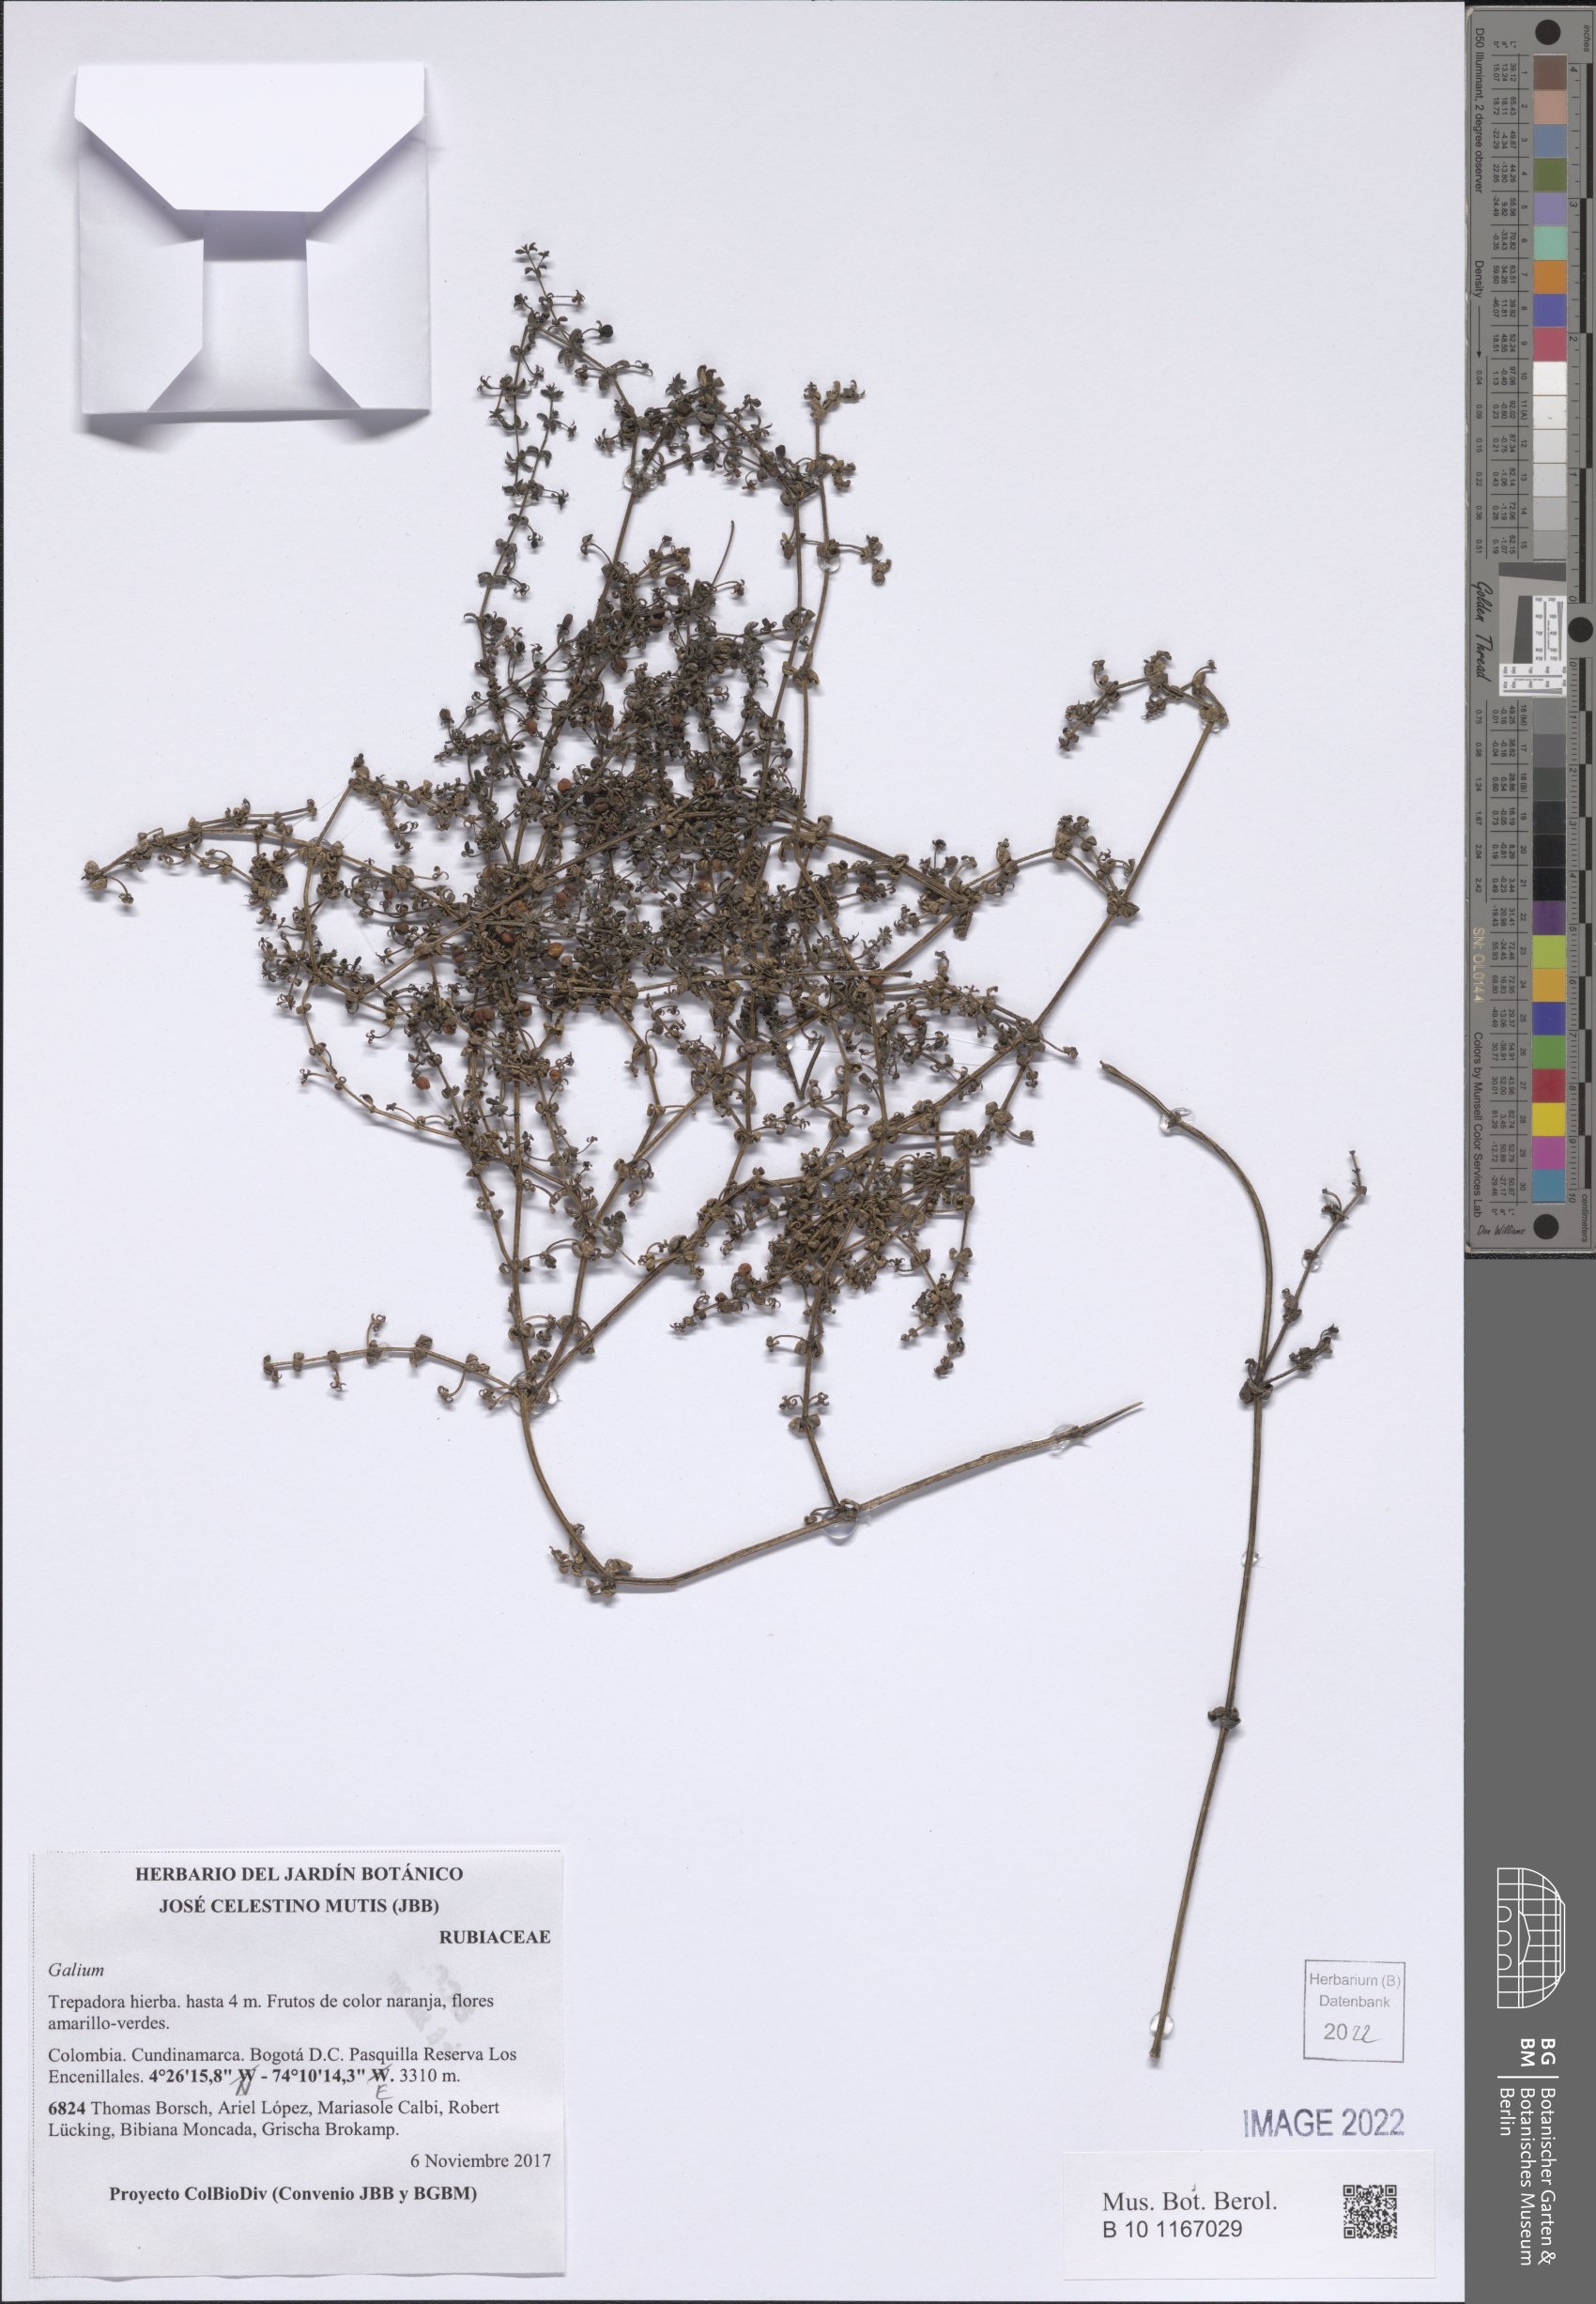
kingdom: Plantae
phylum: Tracheophyta
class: Magnoliopsida
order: Gentianales
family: Rubiaceae
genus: Galium
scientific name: Galium
